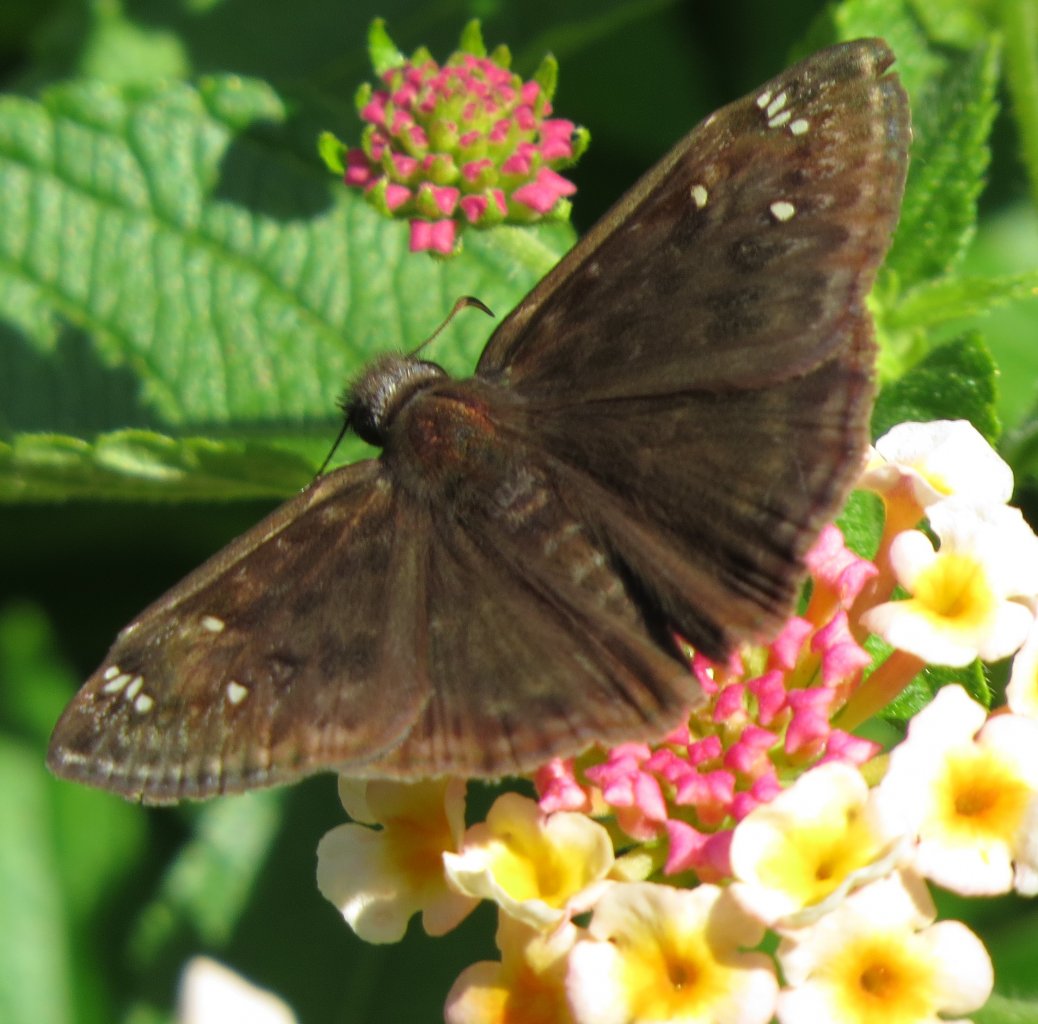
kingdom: Animalia
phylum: Arthropoda
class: Insecta
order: Lepidoptera
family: Hesperiidae
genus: Gesta
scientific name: Gesta
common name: Horace's Duskywing
